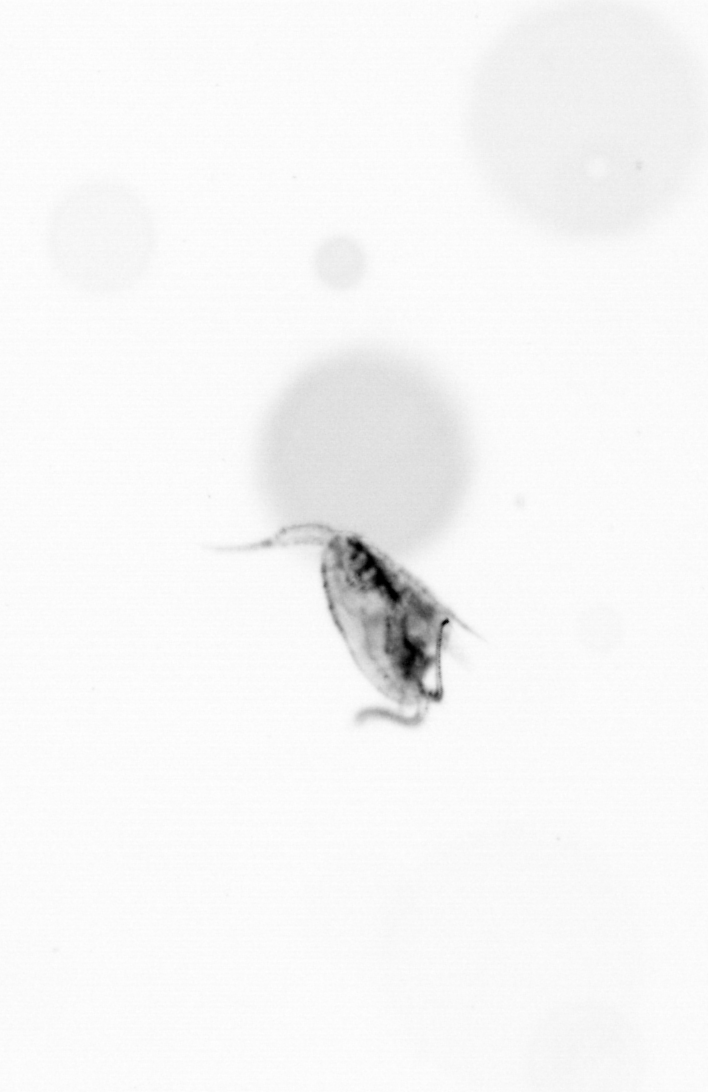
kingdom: Animalia
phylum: Arthropoda
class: Copepoda
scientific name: Copepoda
